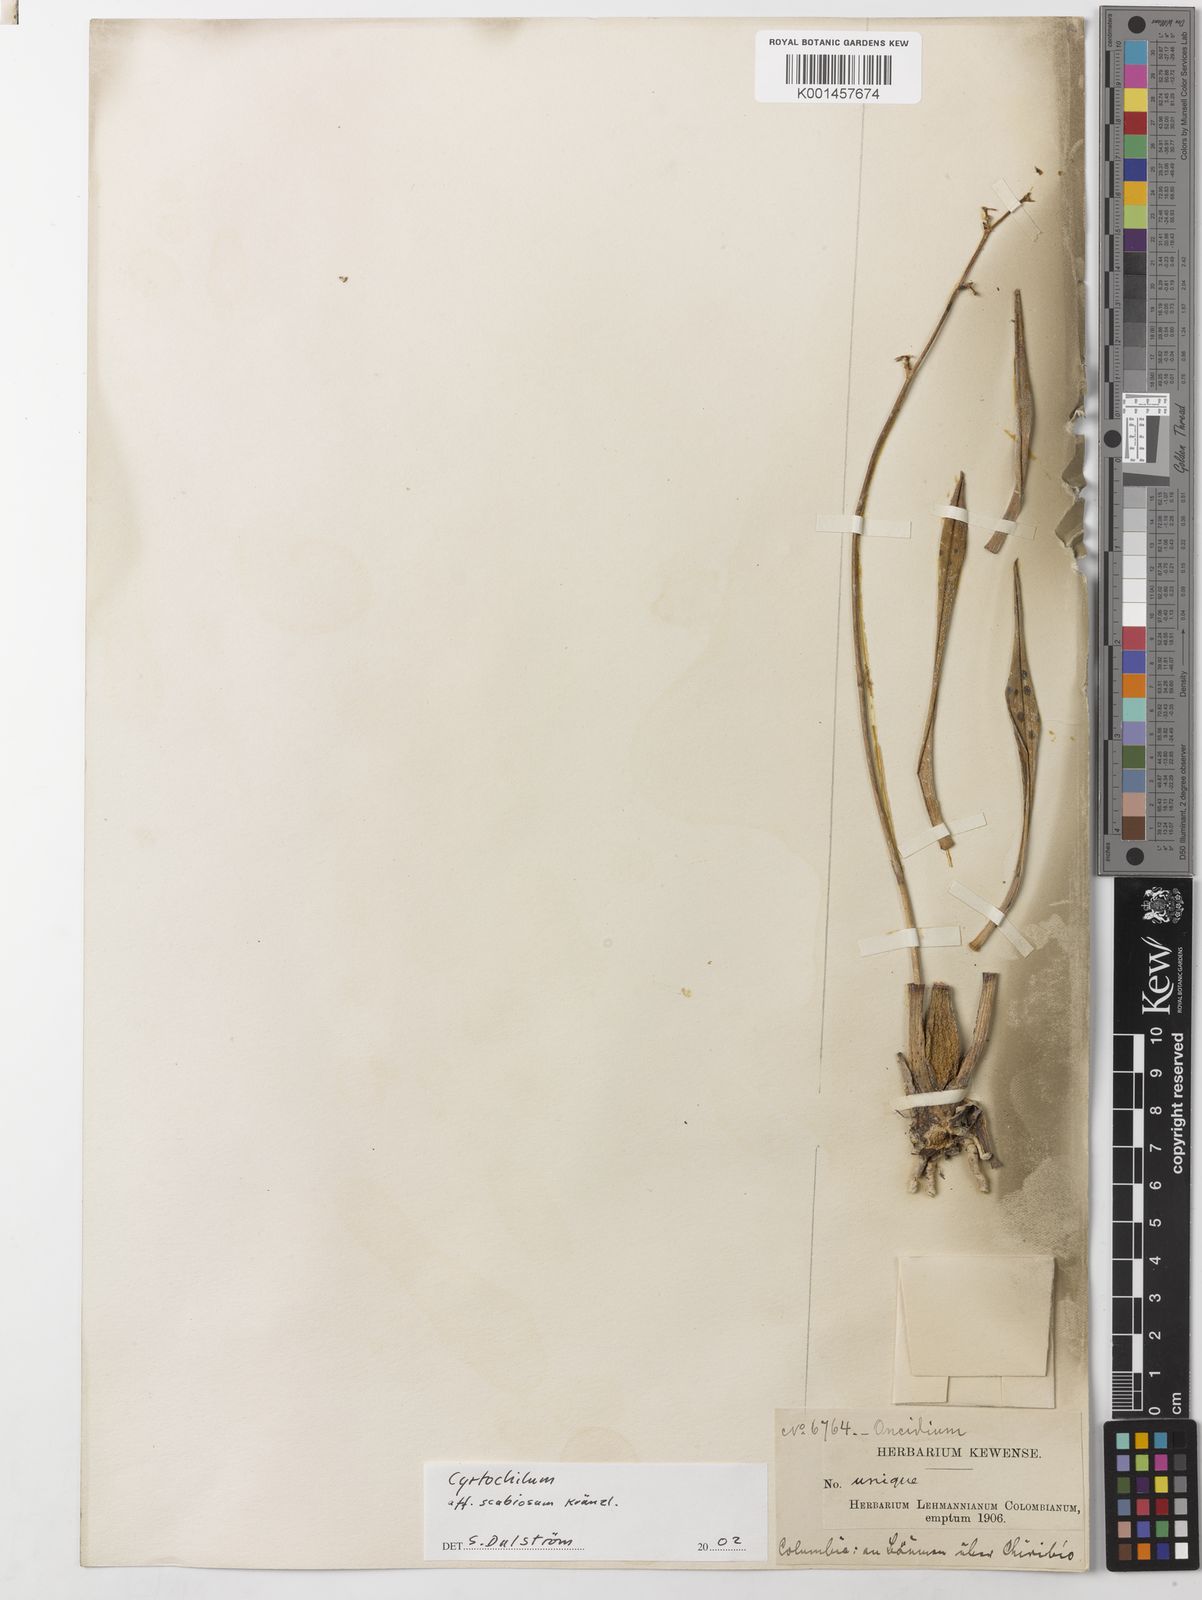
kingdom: Plantae
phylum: Tracheophyta
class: Liliopsida
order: Asparagales
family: Orchidaceae
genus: Cyrtochilum
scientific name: Cyrtochilum
